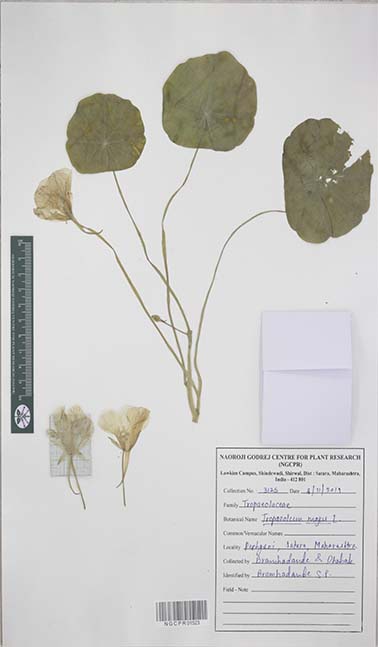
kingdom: Plantae
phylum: Tracheophyta
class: Magnoliopsida
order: Brassicales
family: Tropaeolaceae
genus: Tropaeolum
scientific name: Tropaeolum majus
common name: Nasturtium
